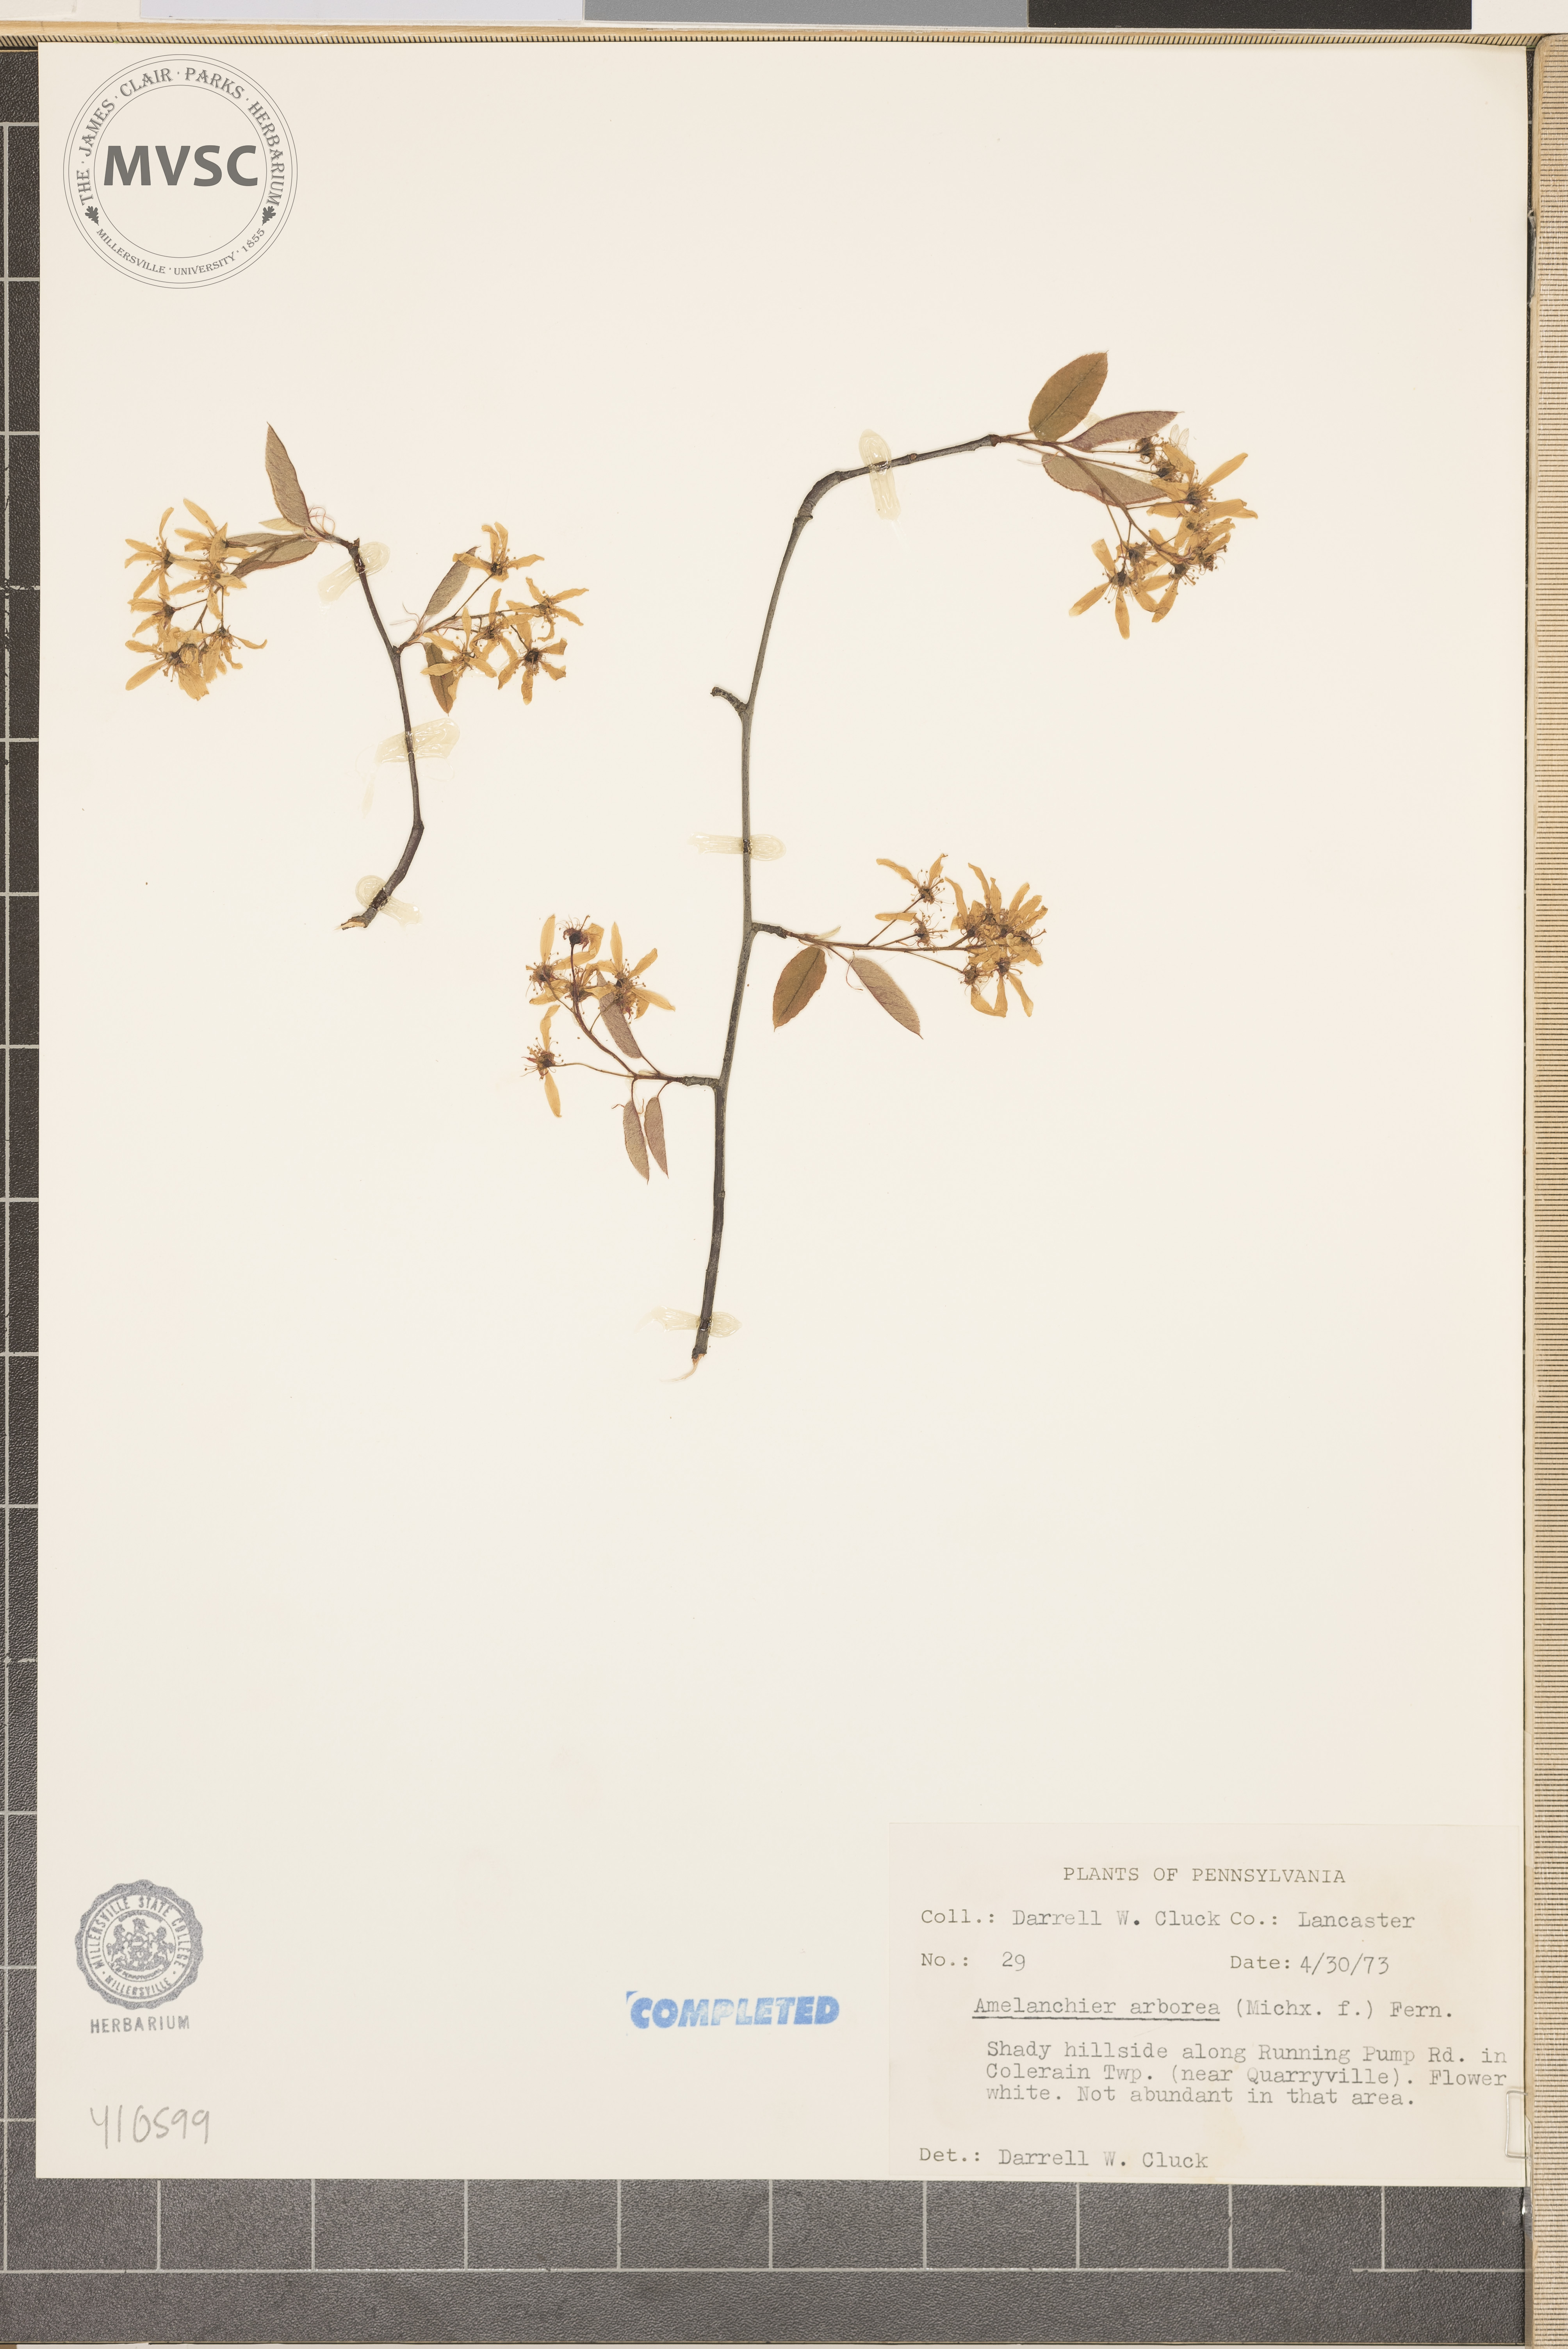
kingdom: Plantae
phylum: Tracheophyta
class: Magnoliopsida
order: Rosales
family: Rosaceae
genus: Amelanchier
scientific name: Amelanchier arborea
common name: Downy serviceberry
